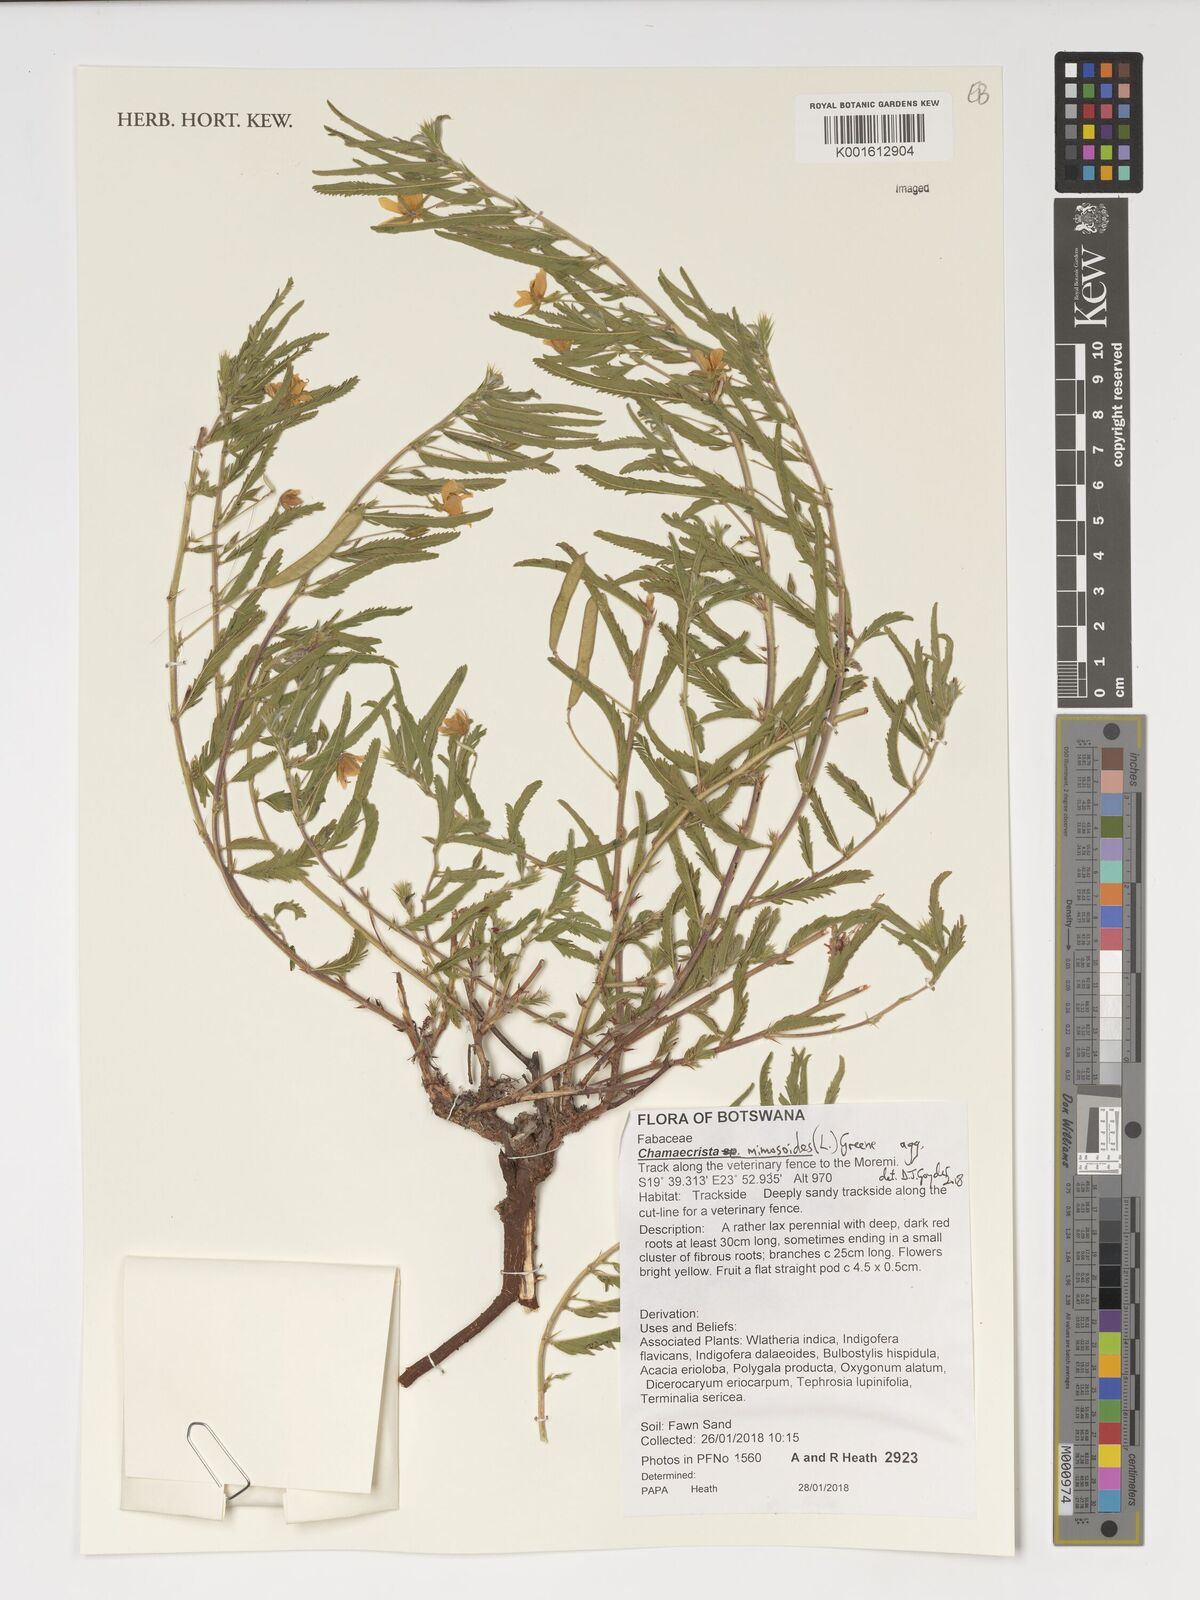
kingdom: Plantae
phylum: Tracheophyta
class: Magnoliopsida
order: Fabales
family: Fabaceae
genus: Chamaecrista
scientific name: Chamaecrista mimosoides
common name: Fish-bone cassia
